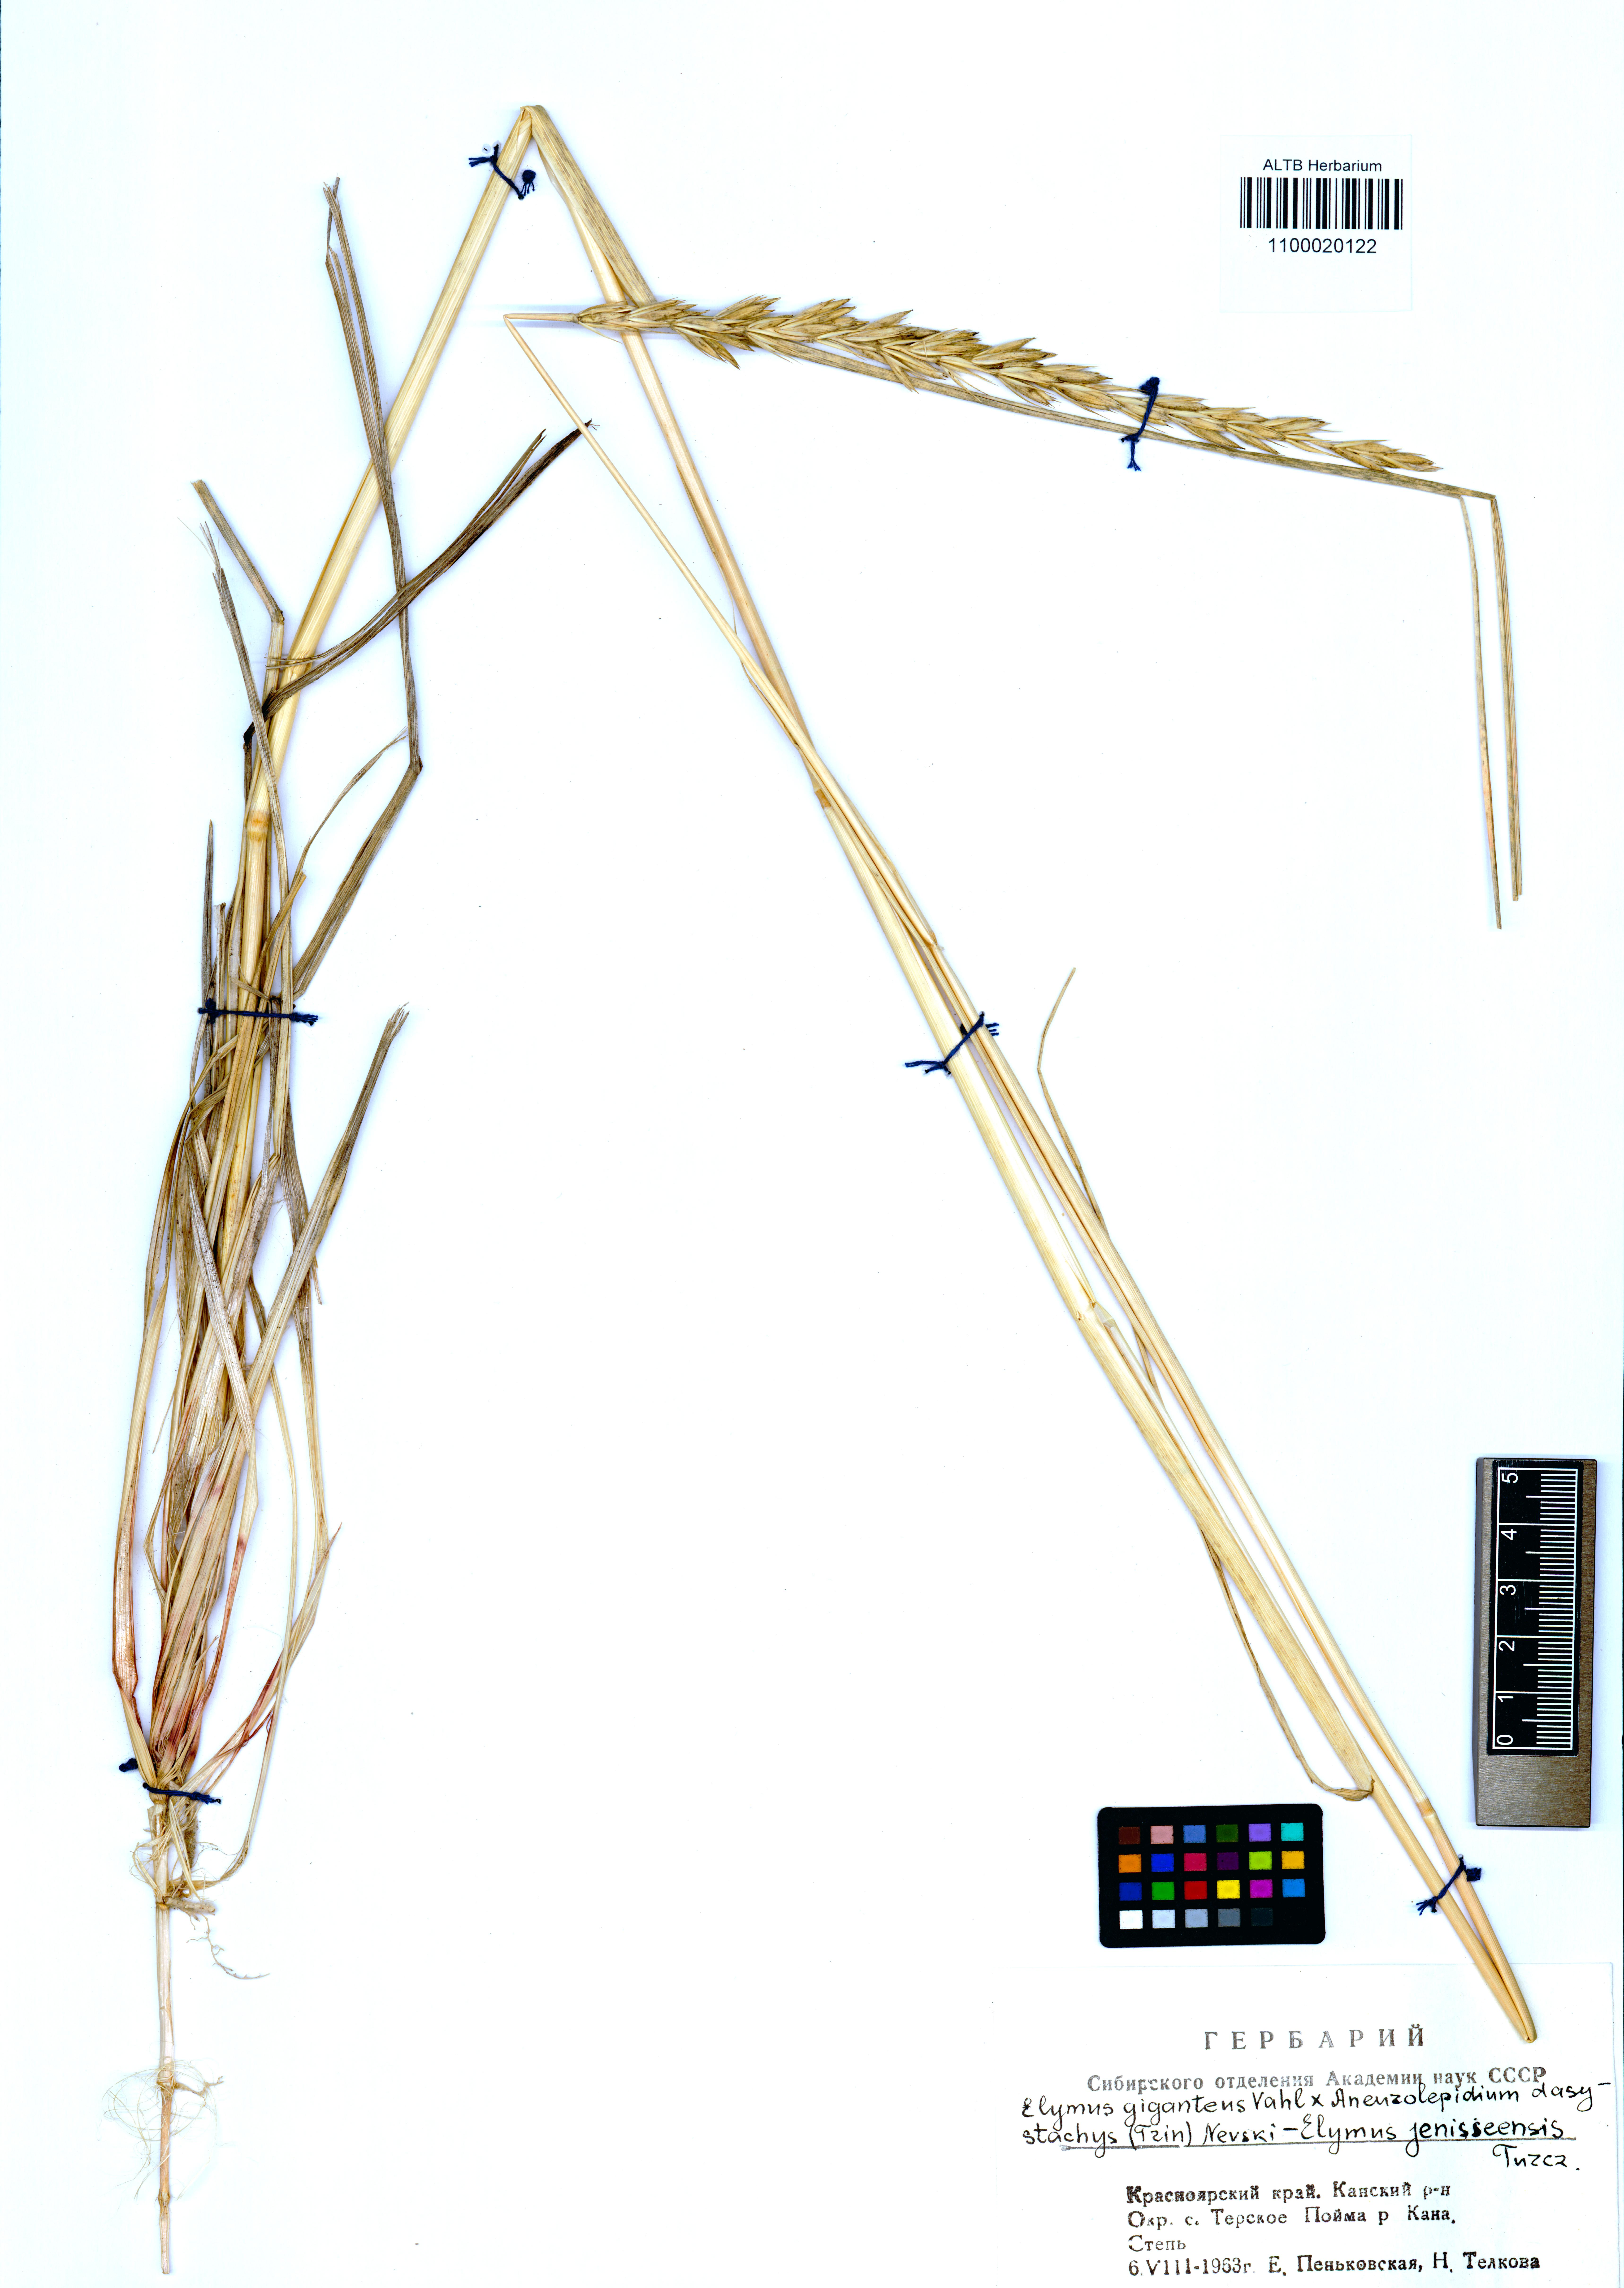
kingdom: Plantae
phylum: Tracheophyta
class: Liliopsida
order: Poales
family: Poaceae
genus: Leymus
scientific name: Leymus jenisseiensis
